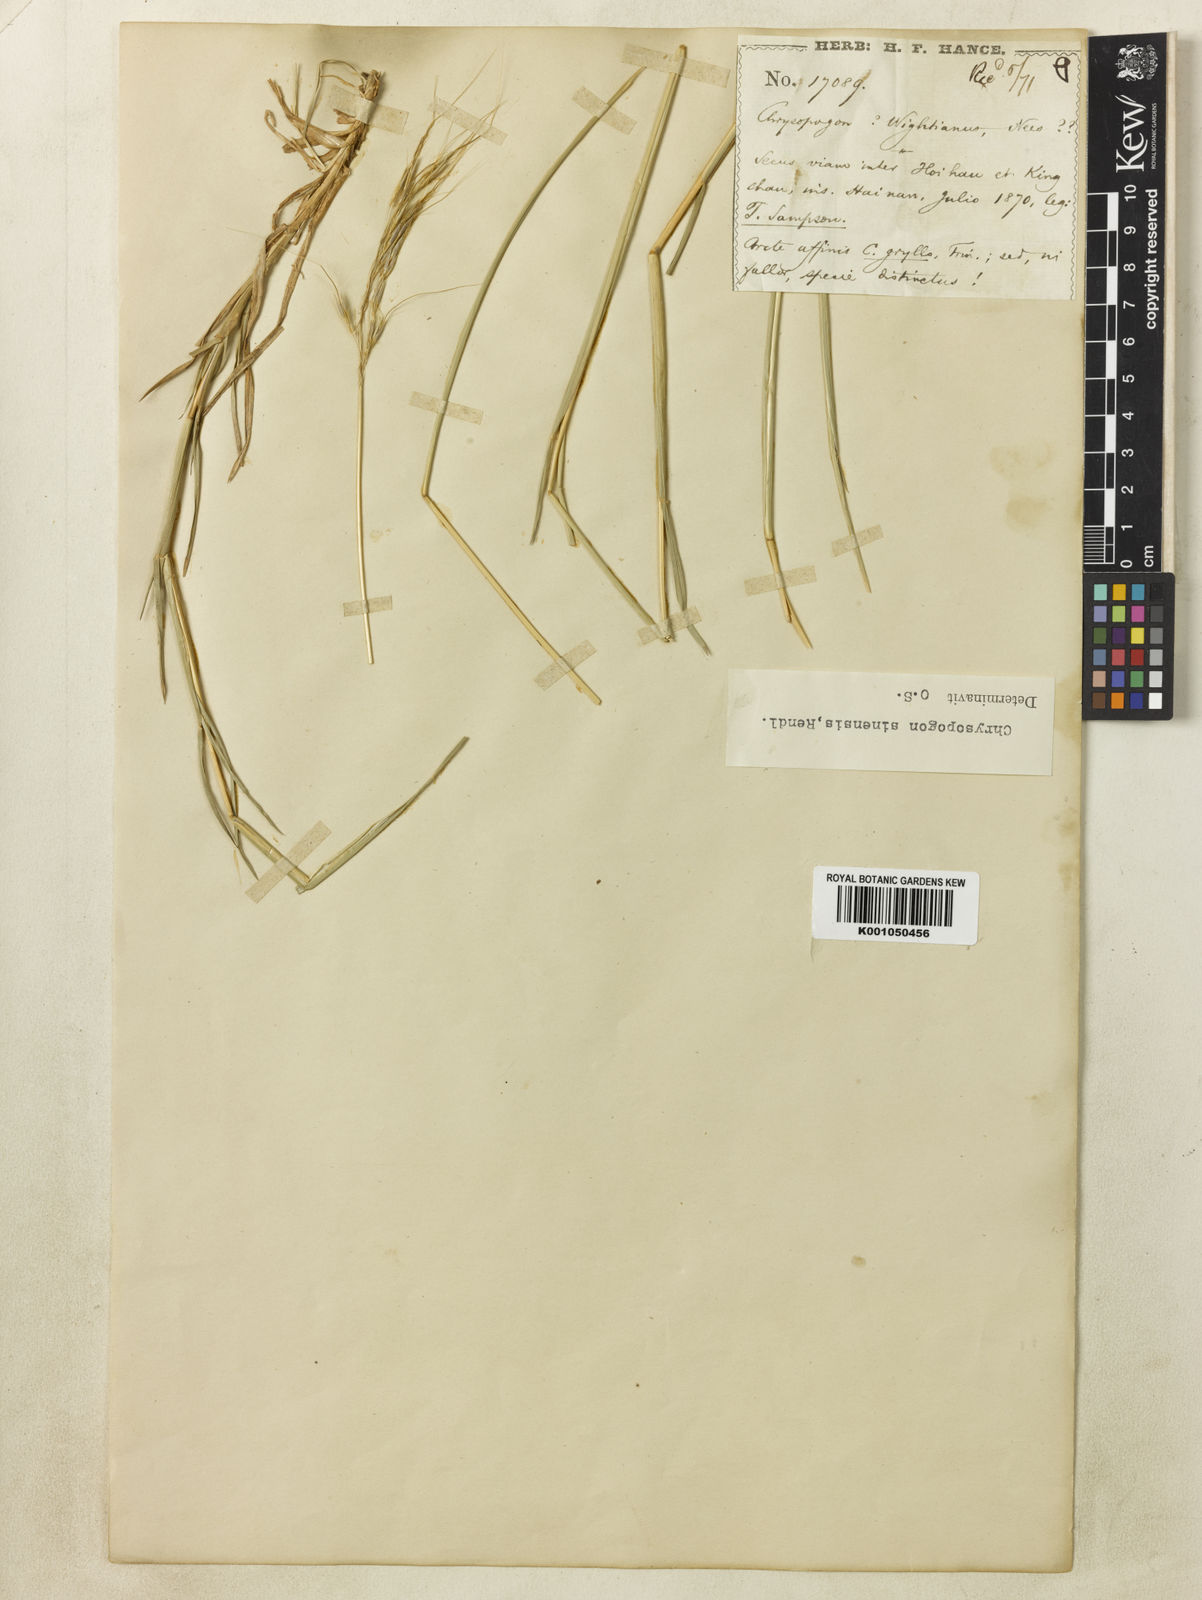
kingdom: Plantae
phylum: Tracheophyta
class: Liliopsida
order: Poales
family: Poaceae
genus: Chrysopogon
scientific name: Chrysopogon orientalis
